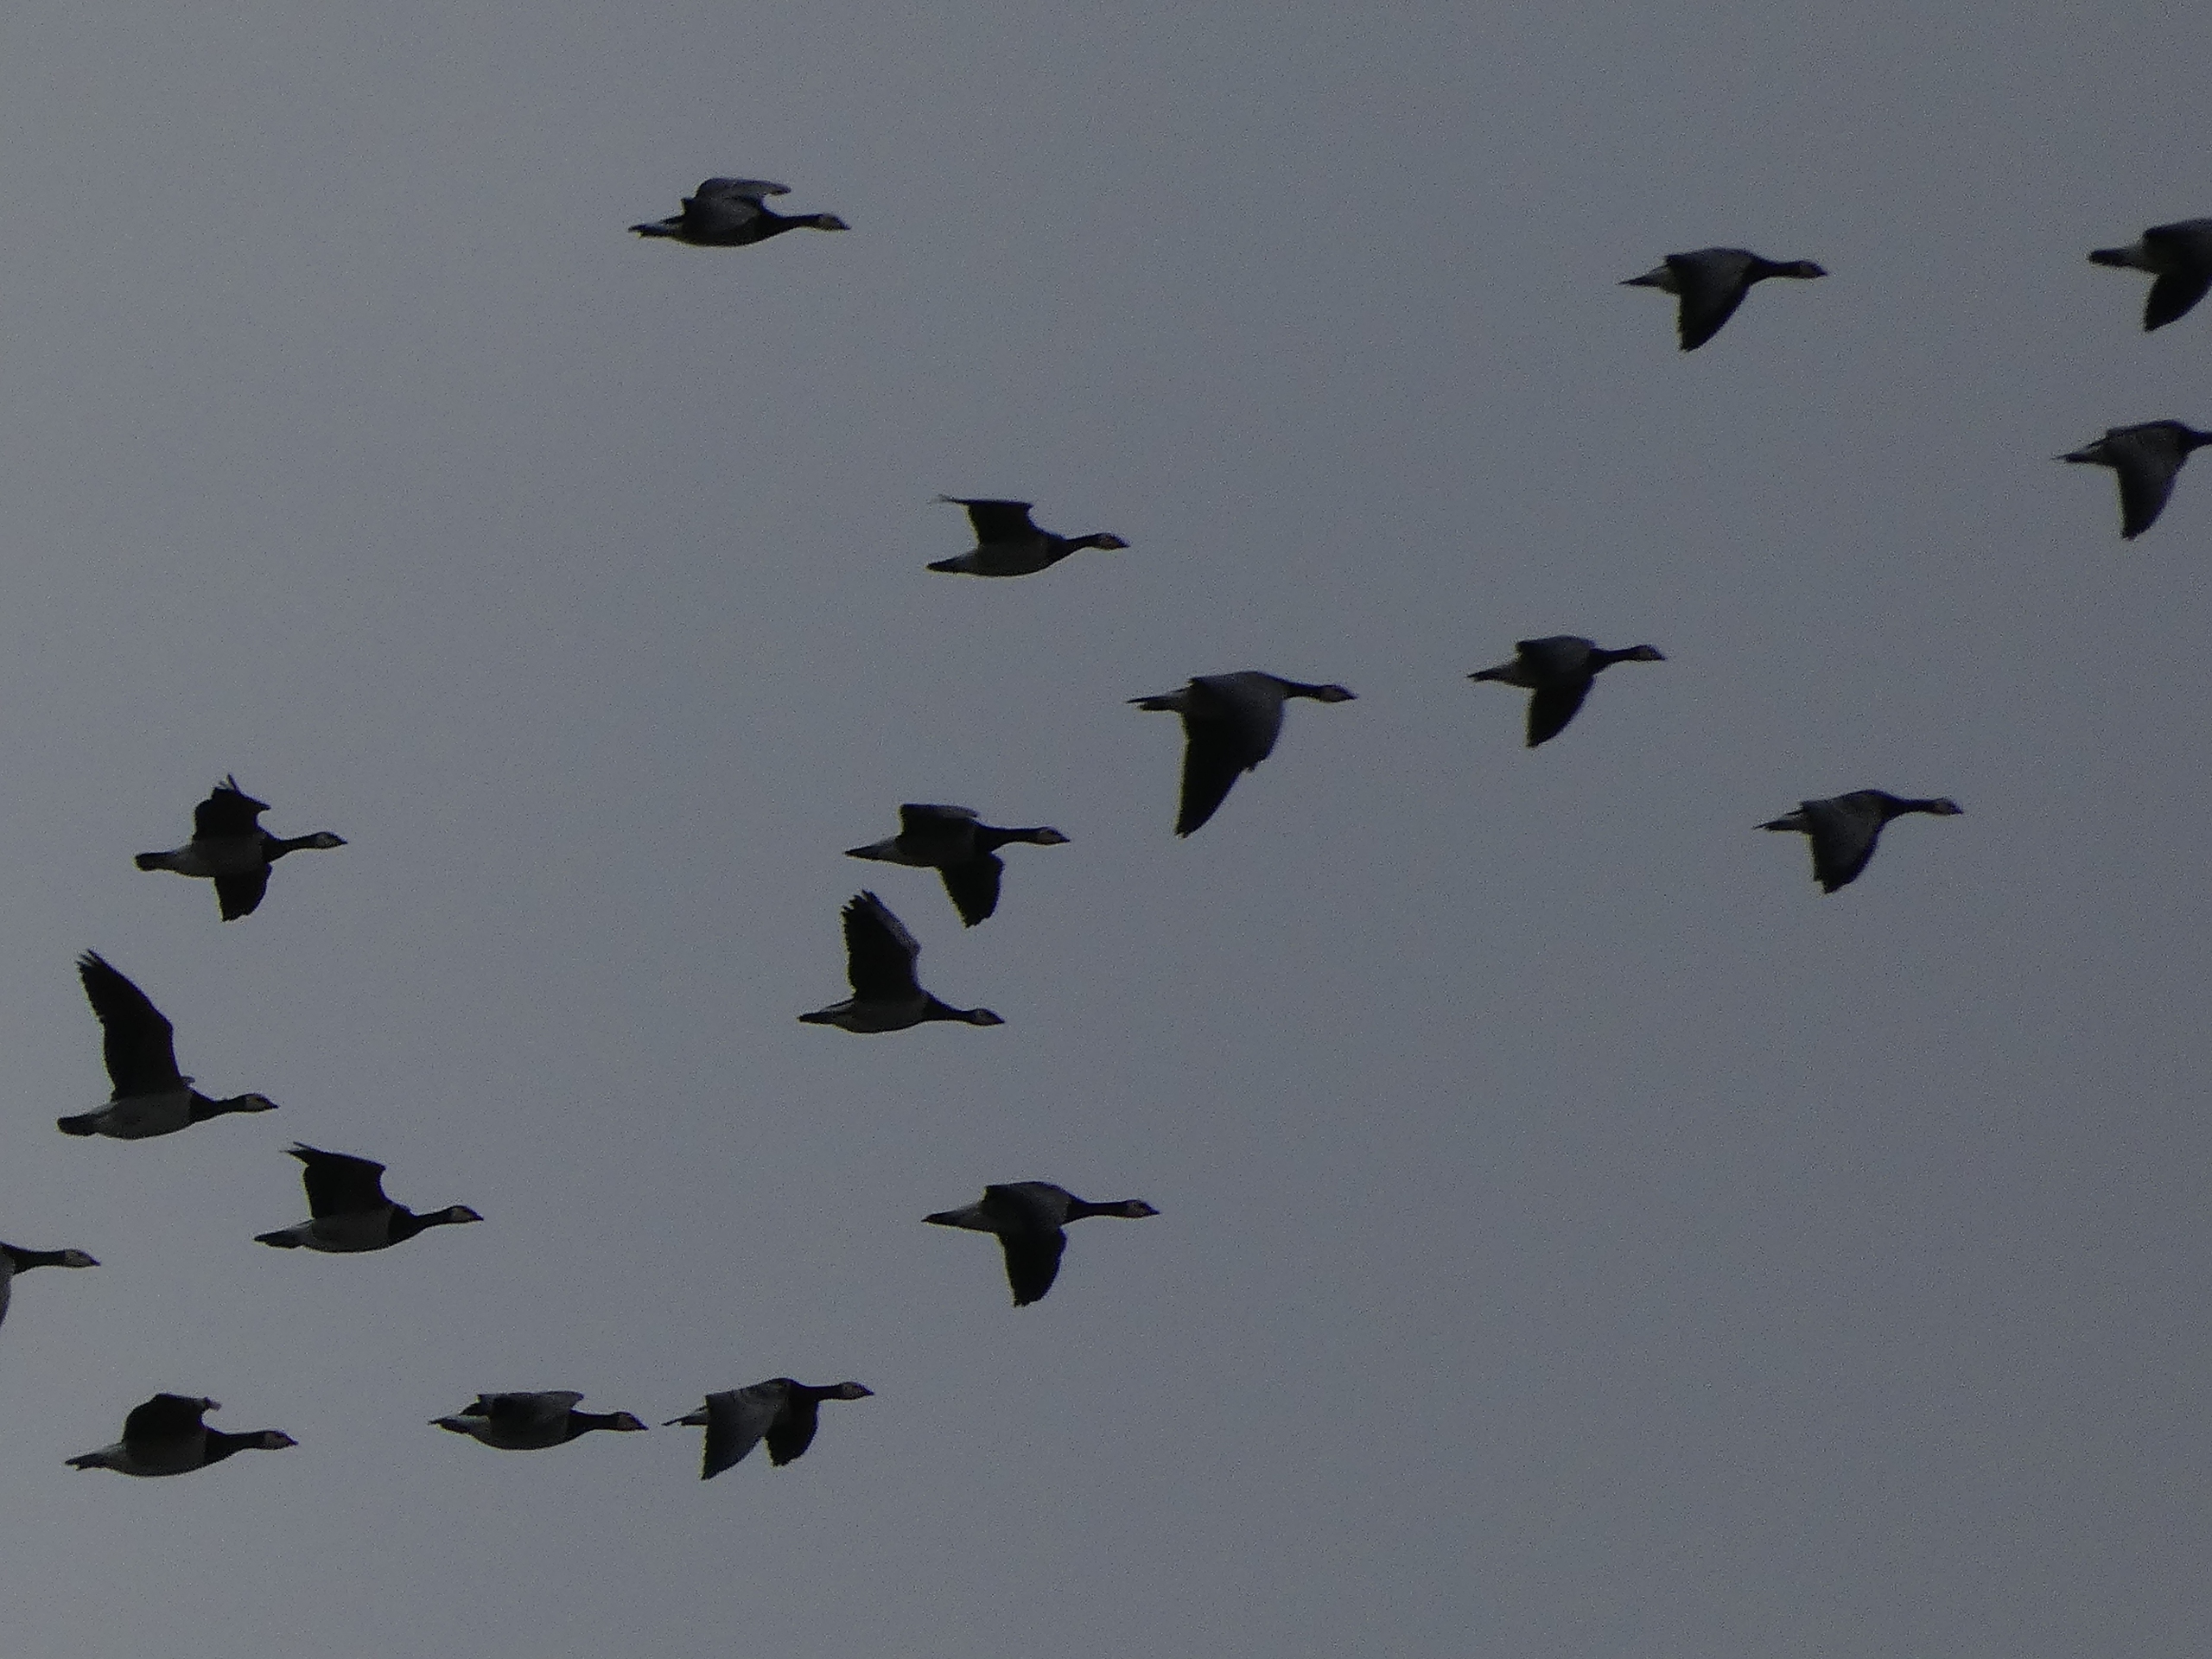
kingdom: Animalia
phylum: Chordata
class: Aves
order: Anseriformes
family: Anatidae
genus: Branta
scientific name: Branta leucopsis
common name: Bramgås
